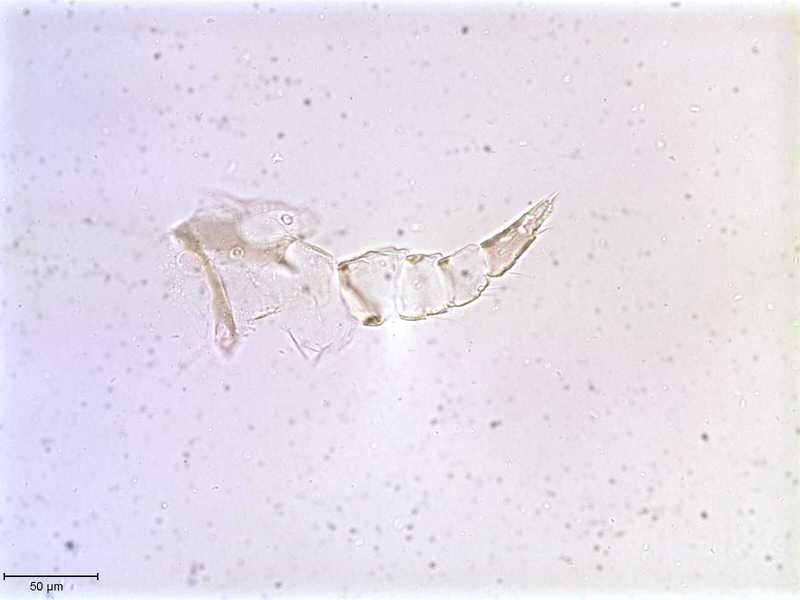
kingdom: Animalia
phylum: Arthropoda
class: Arachnida
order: Mesostigmata
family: Halarachnidae
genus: Orthohalarachne
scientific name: Orthohalarachne letalis
